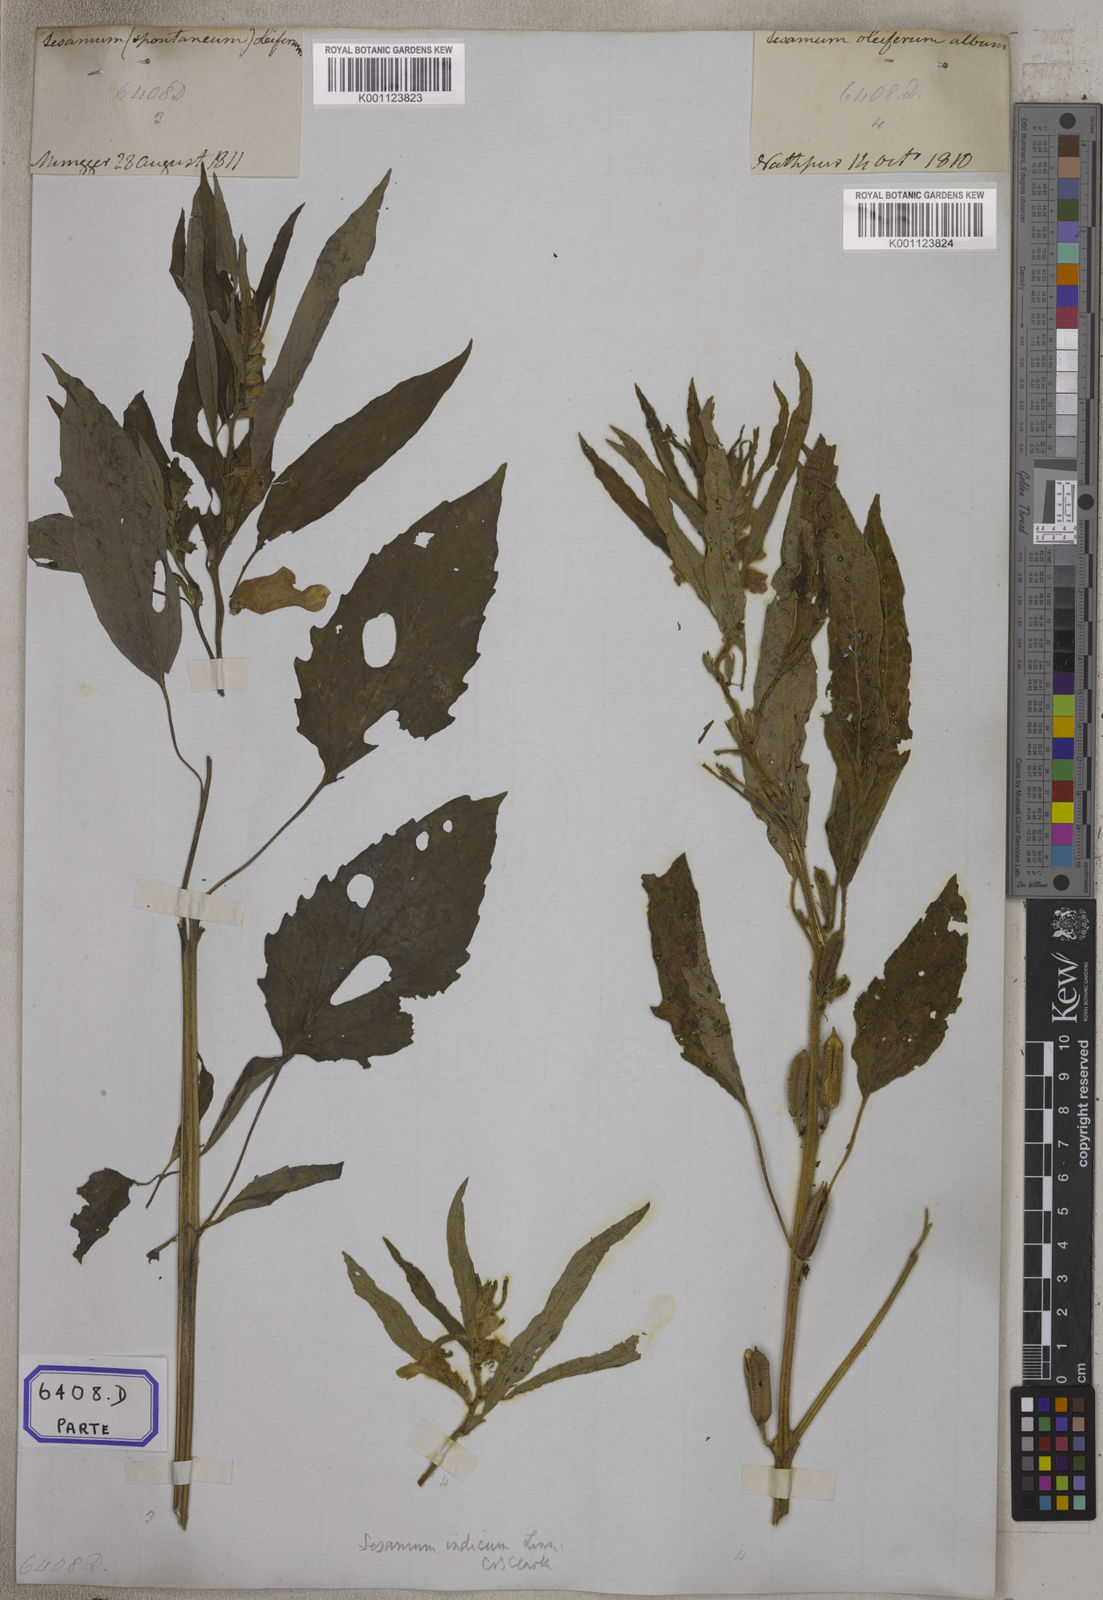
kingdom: Plantae
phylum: Tracheophyta
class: Magnoliopsida
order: Lamiales
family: Pedaliaceae
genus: Sesamum
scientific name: Sesamum indicum
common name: Sesame
